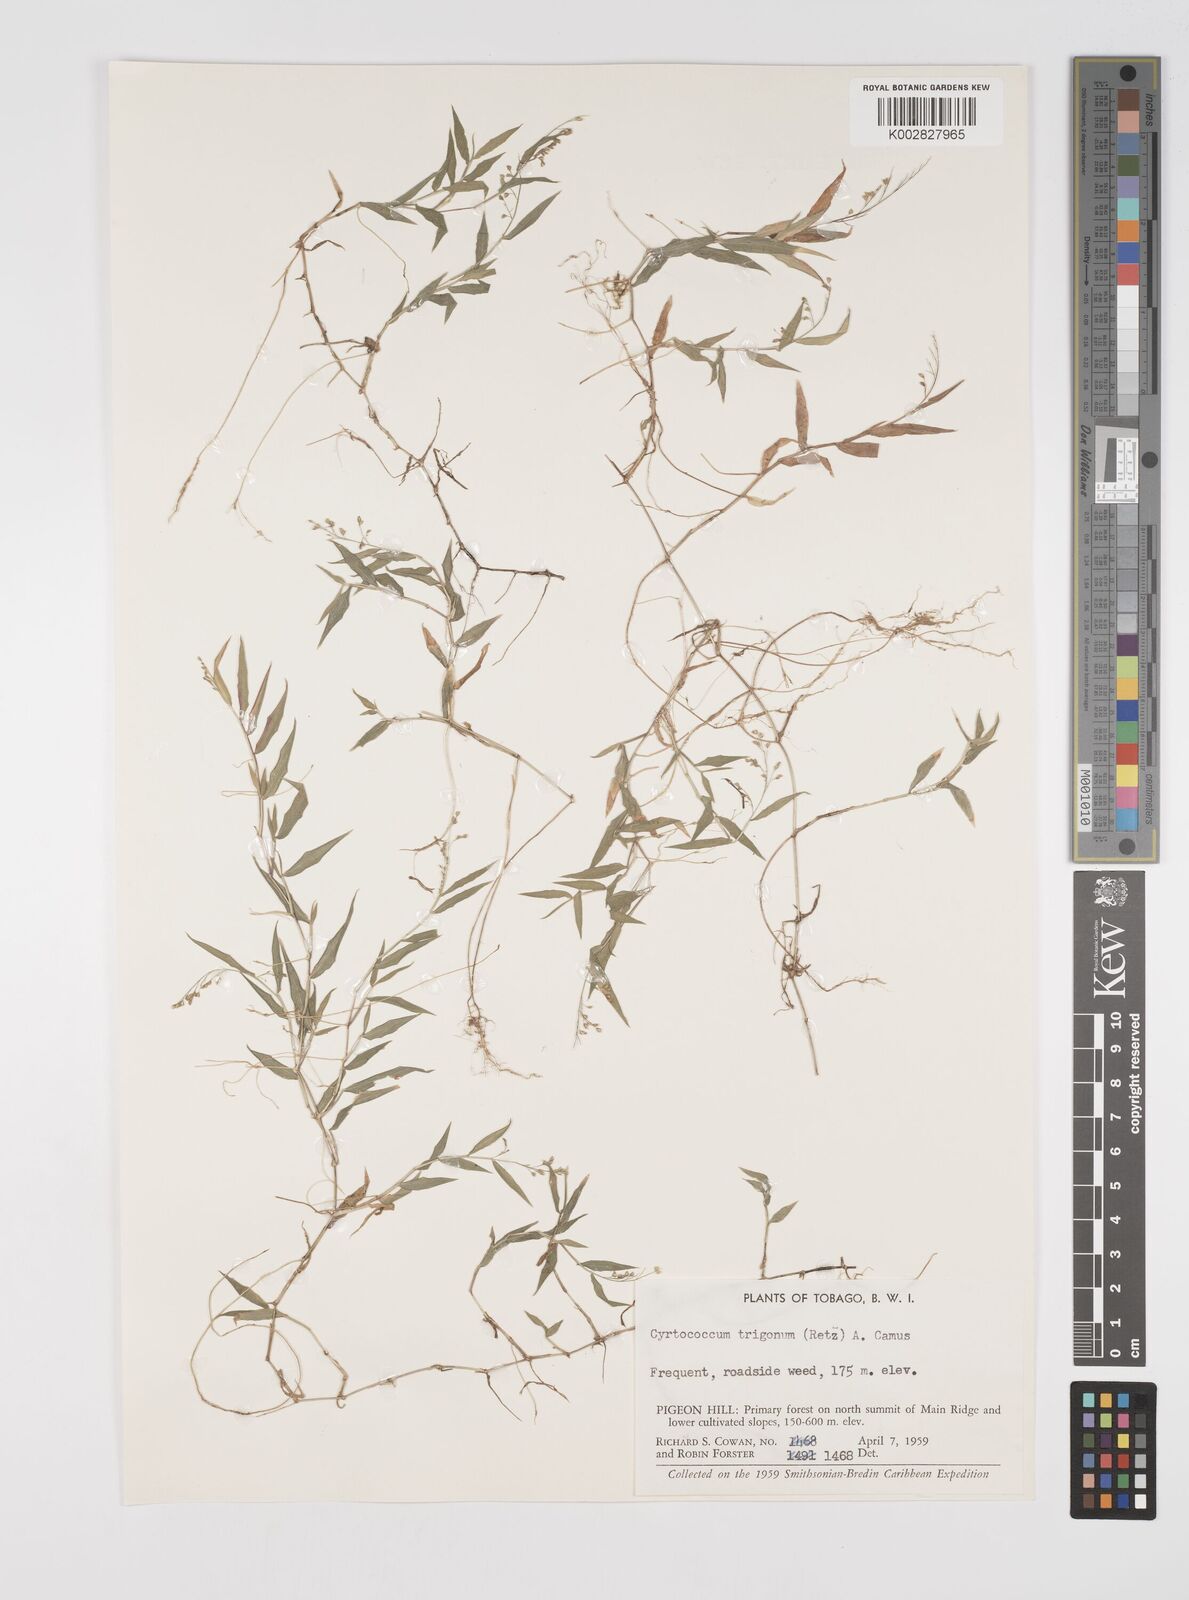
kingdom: Plantae
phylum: Tracheophyta
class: Liliopsida
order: Poales
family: Poaceae
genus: Cyrtococcum
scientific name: Cyrtococcum trigonum
